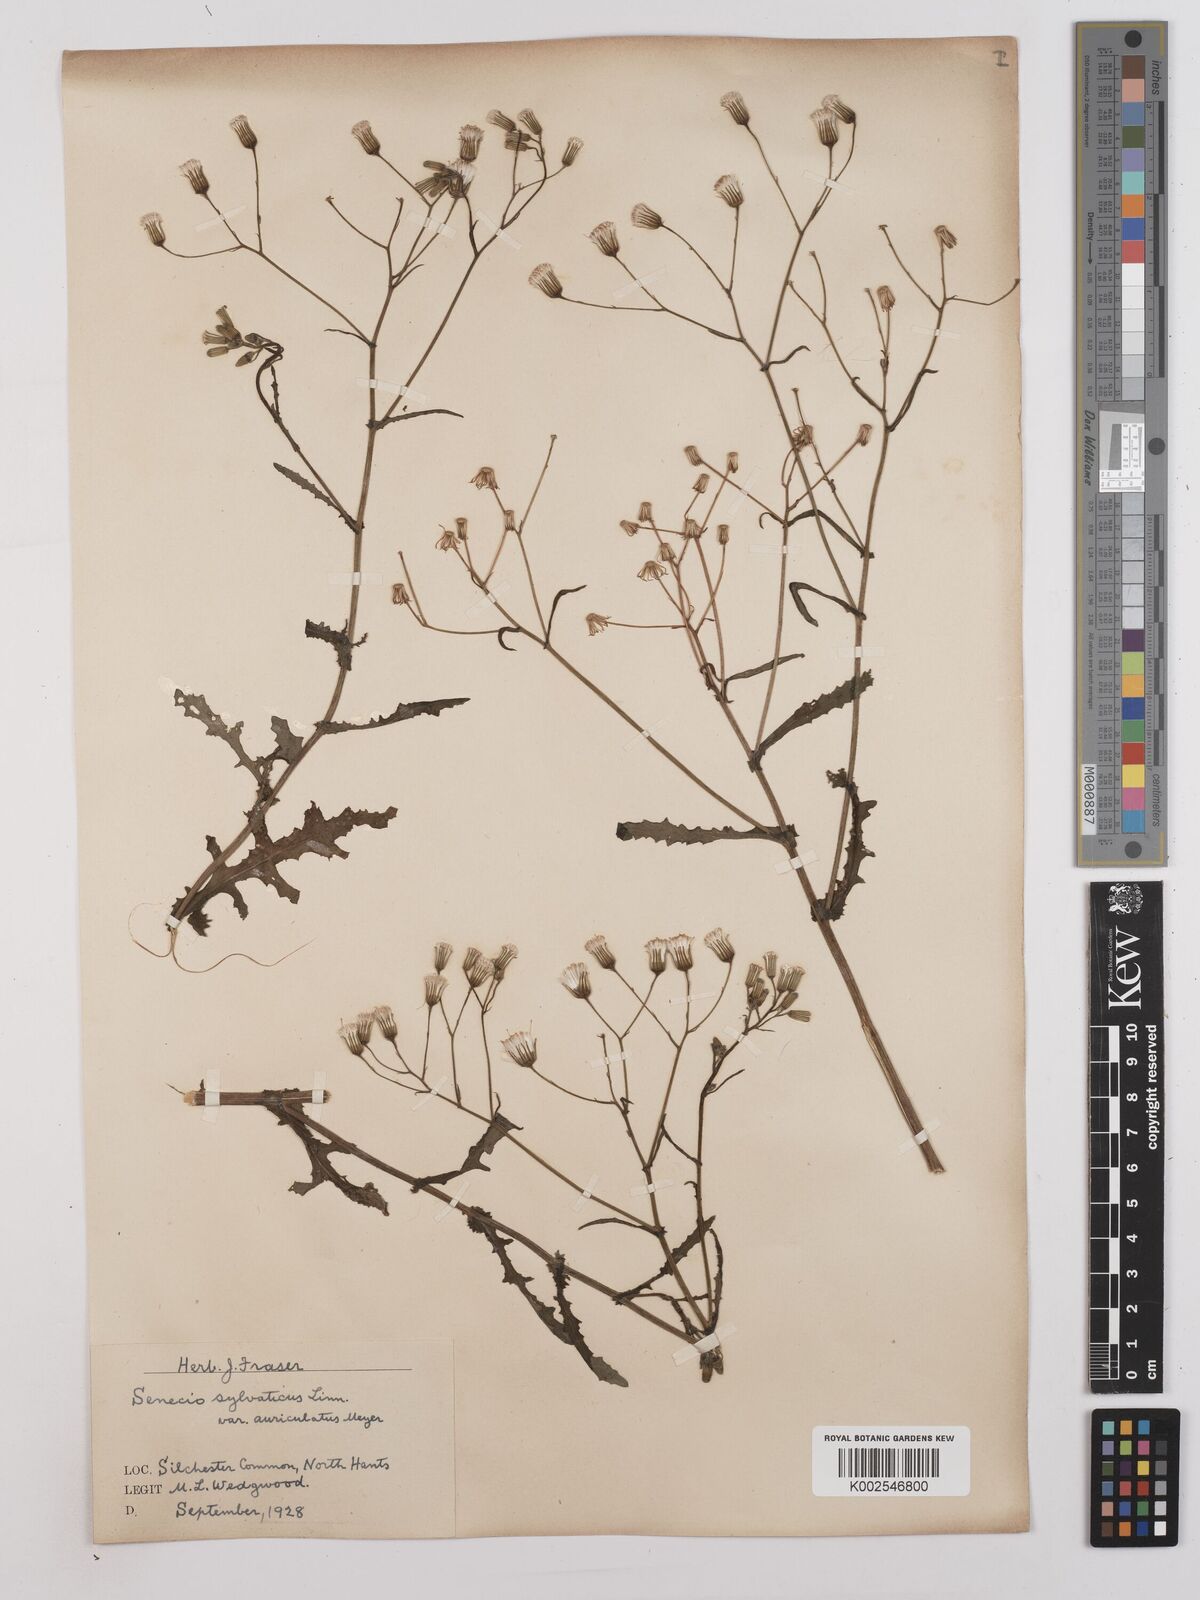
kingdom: Plantae
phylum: Tracheophyta
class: Magnoliopsida
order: Asterales
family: Asteraceae
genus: Senecio
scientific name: Senecio sylvaticus
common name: Woodland ragwort
